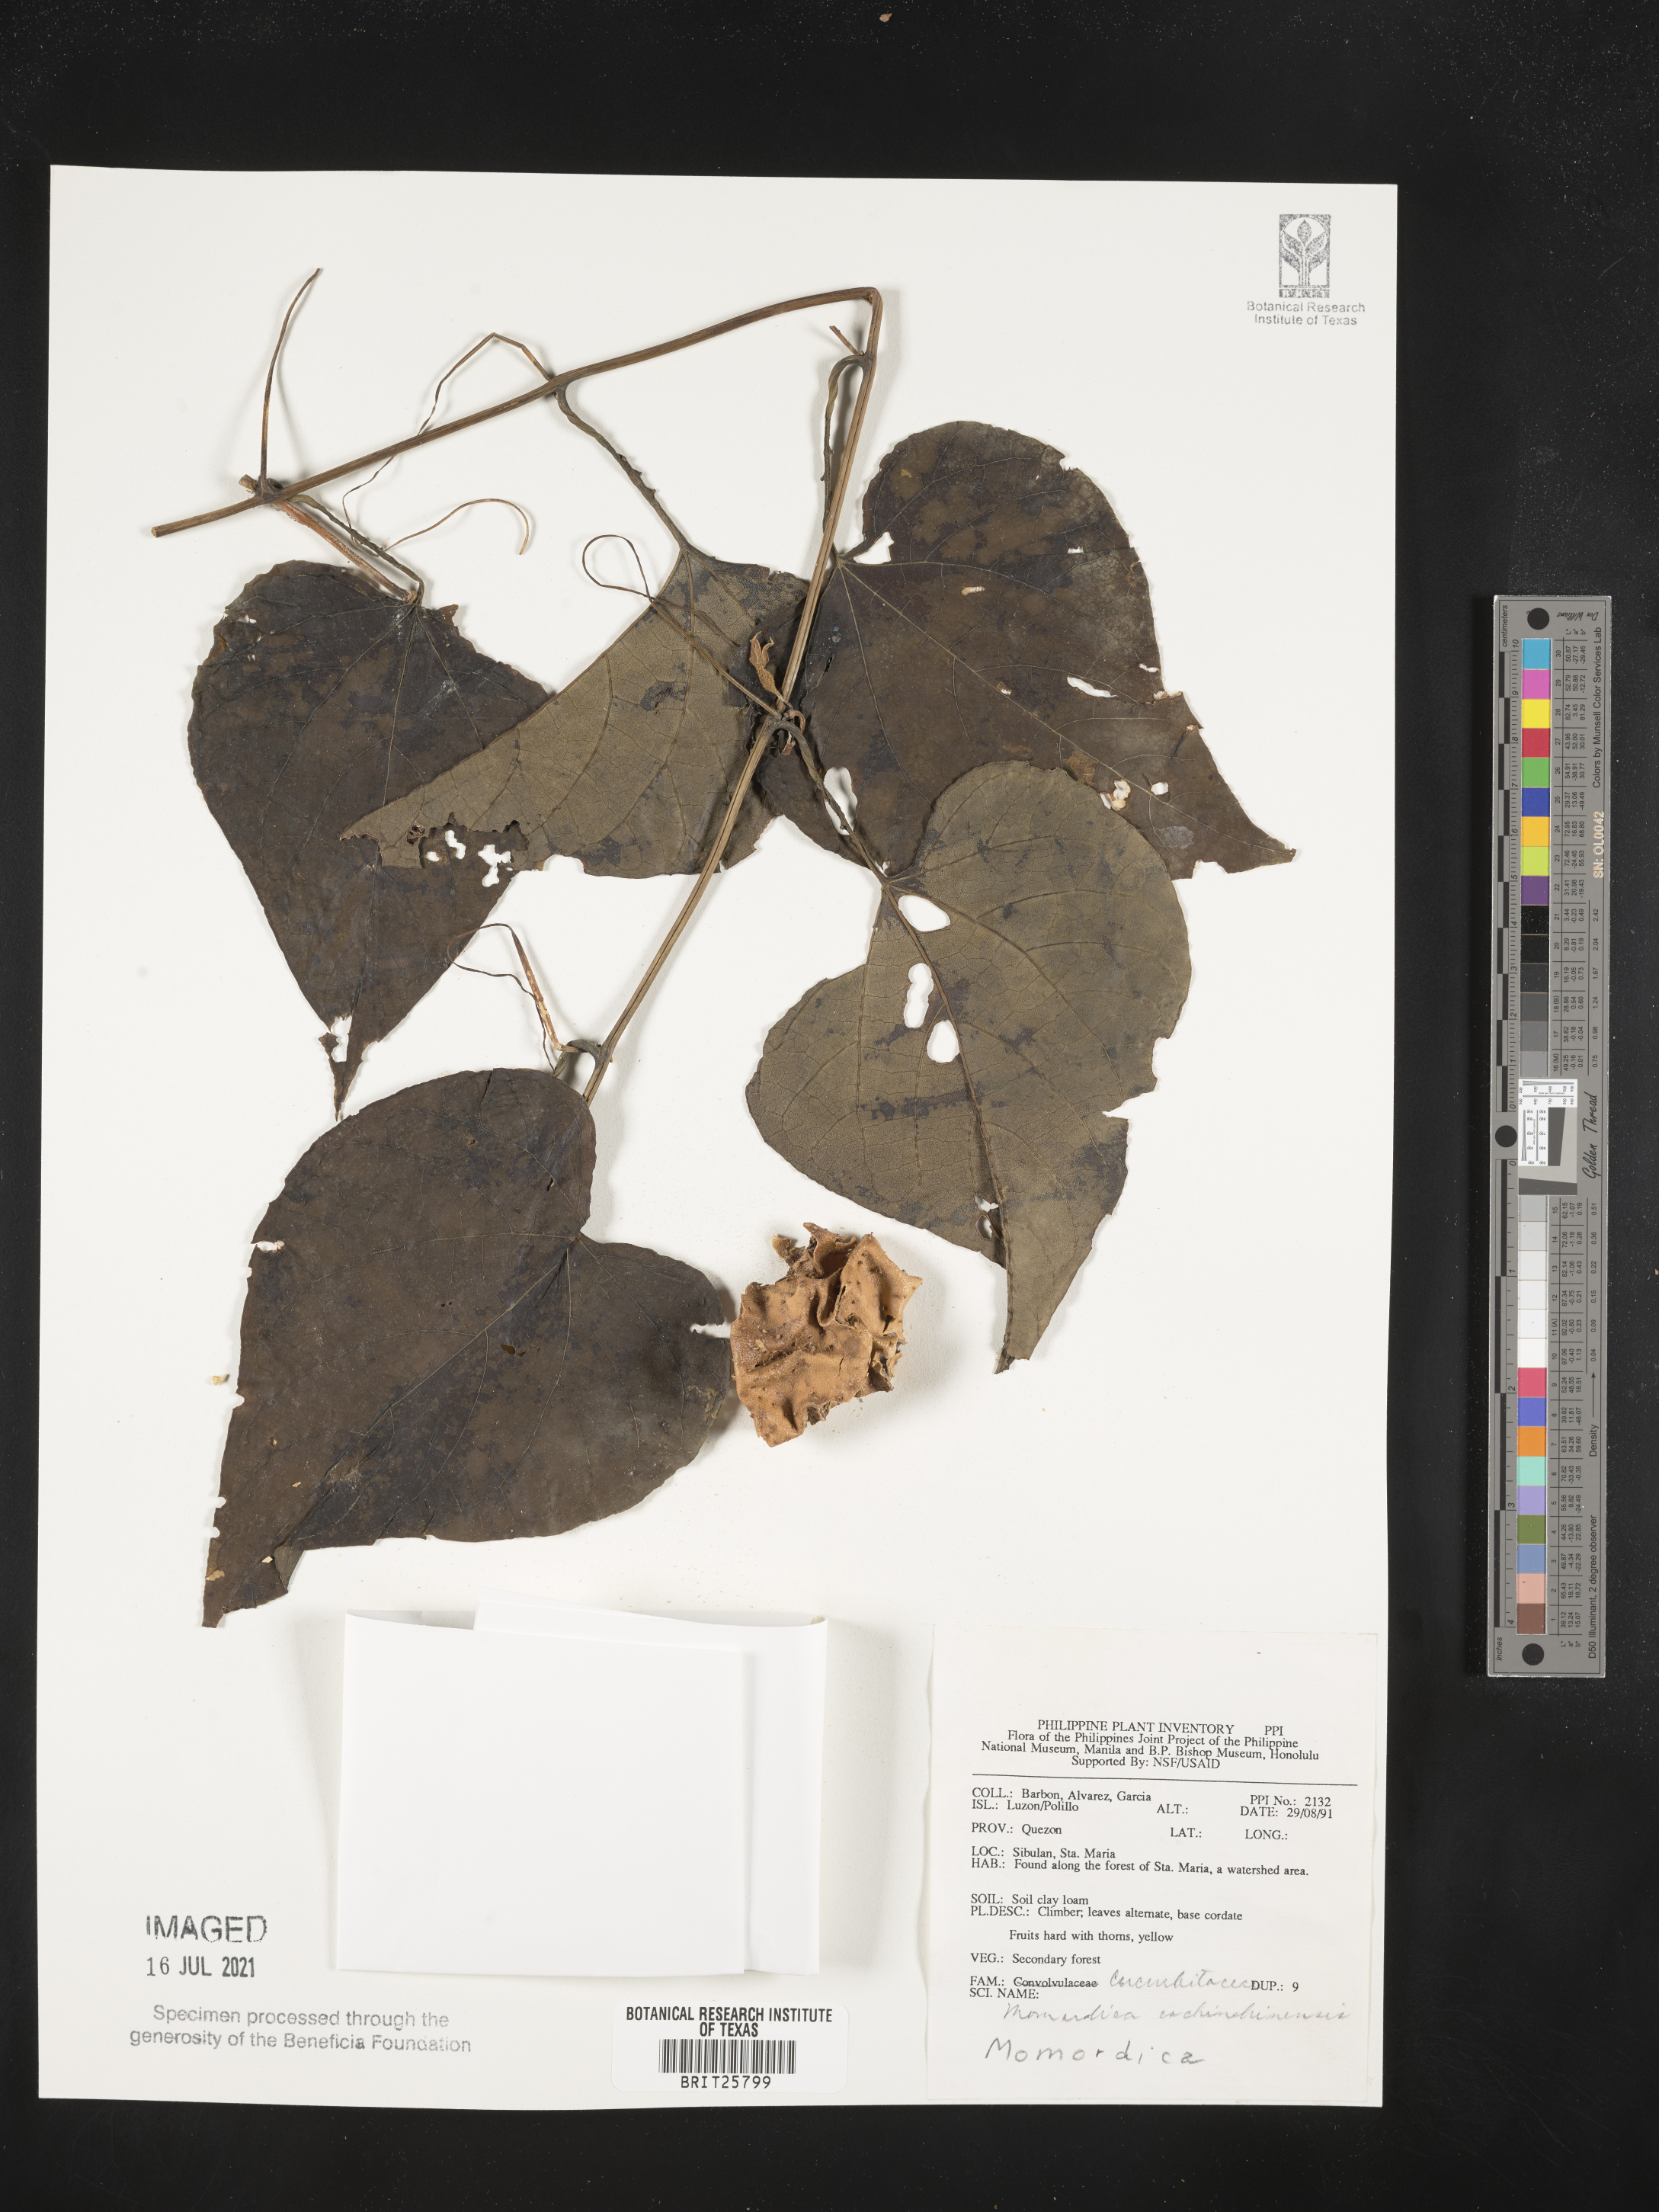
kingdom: Plantae
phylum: Tracheophyta
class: Magnoliopsida
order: Cucurbitales
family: Cucurbitaceae
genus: Momordica
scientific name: Momordica cochinchinensis
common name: Chinese bitter-cucumber
